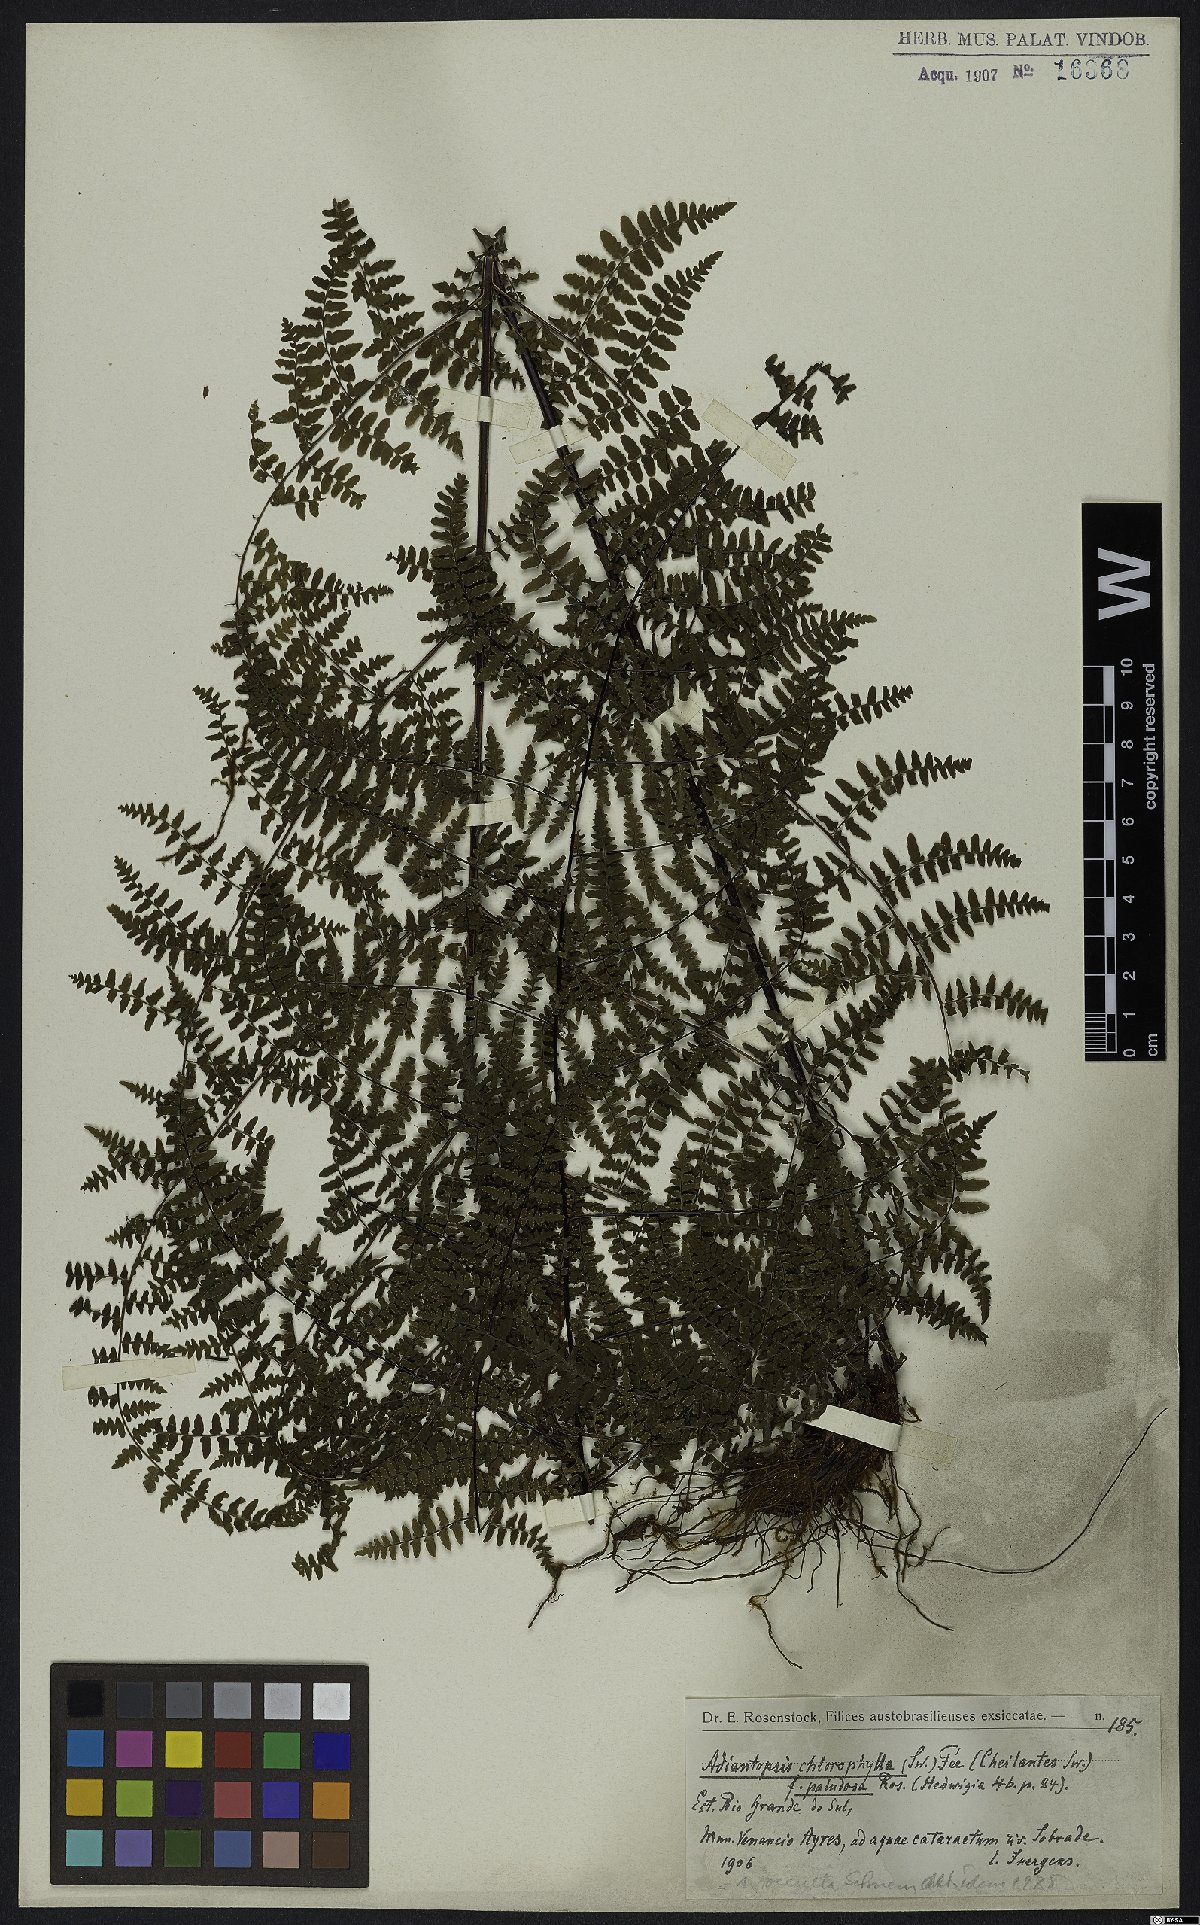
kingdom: Plantae
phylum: Tracheophyta
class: Polypodiopsida
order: Polypodiales
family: Pteridaceae
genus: Adiantopsis
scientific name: Adiantopsis chlorophylla
